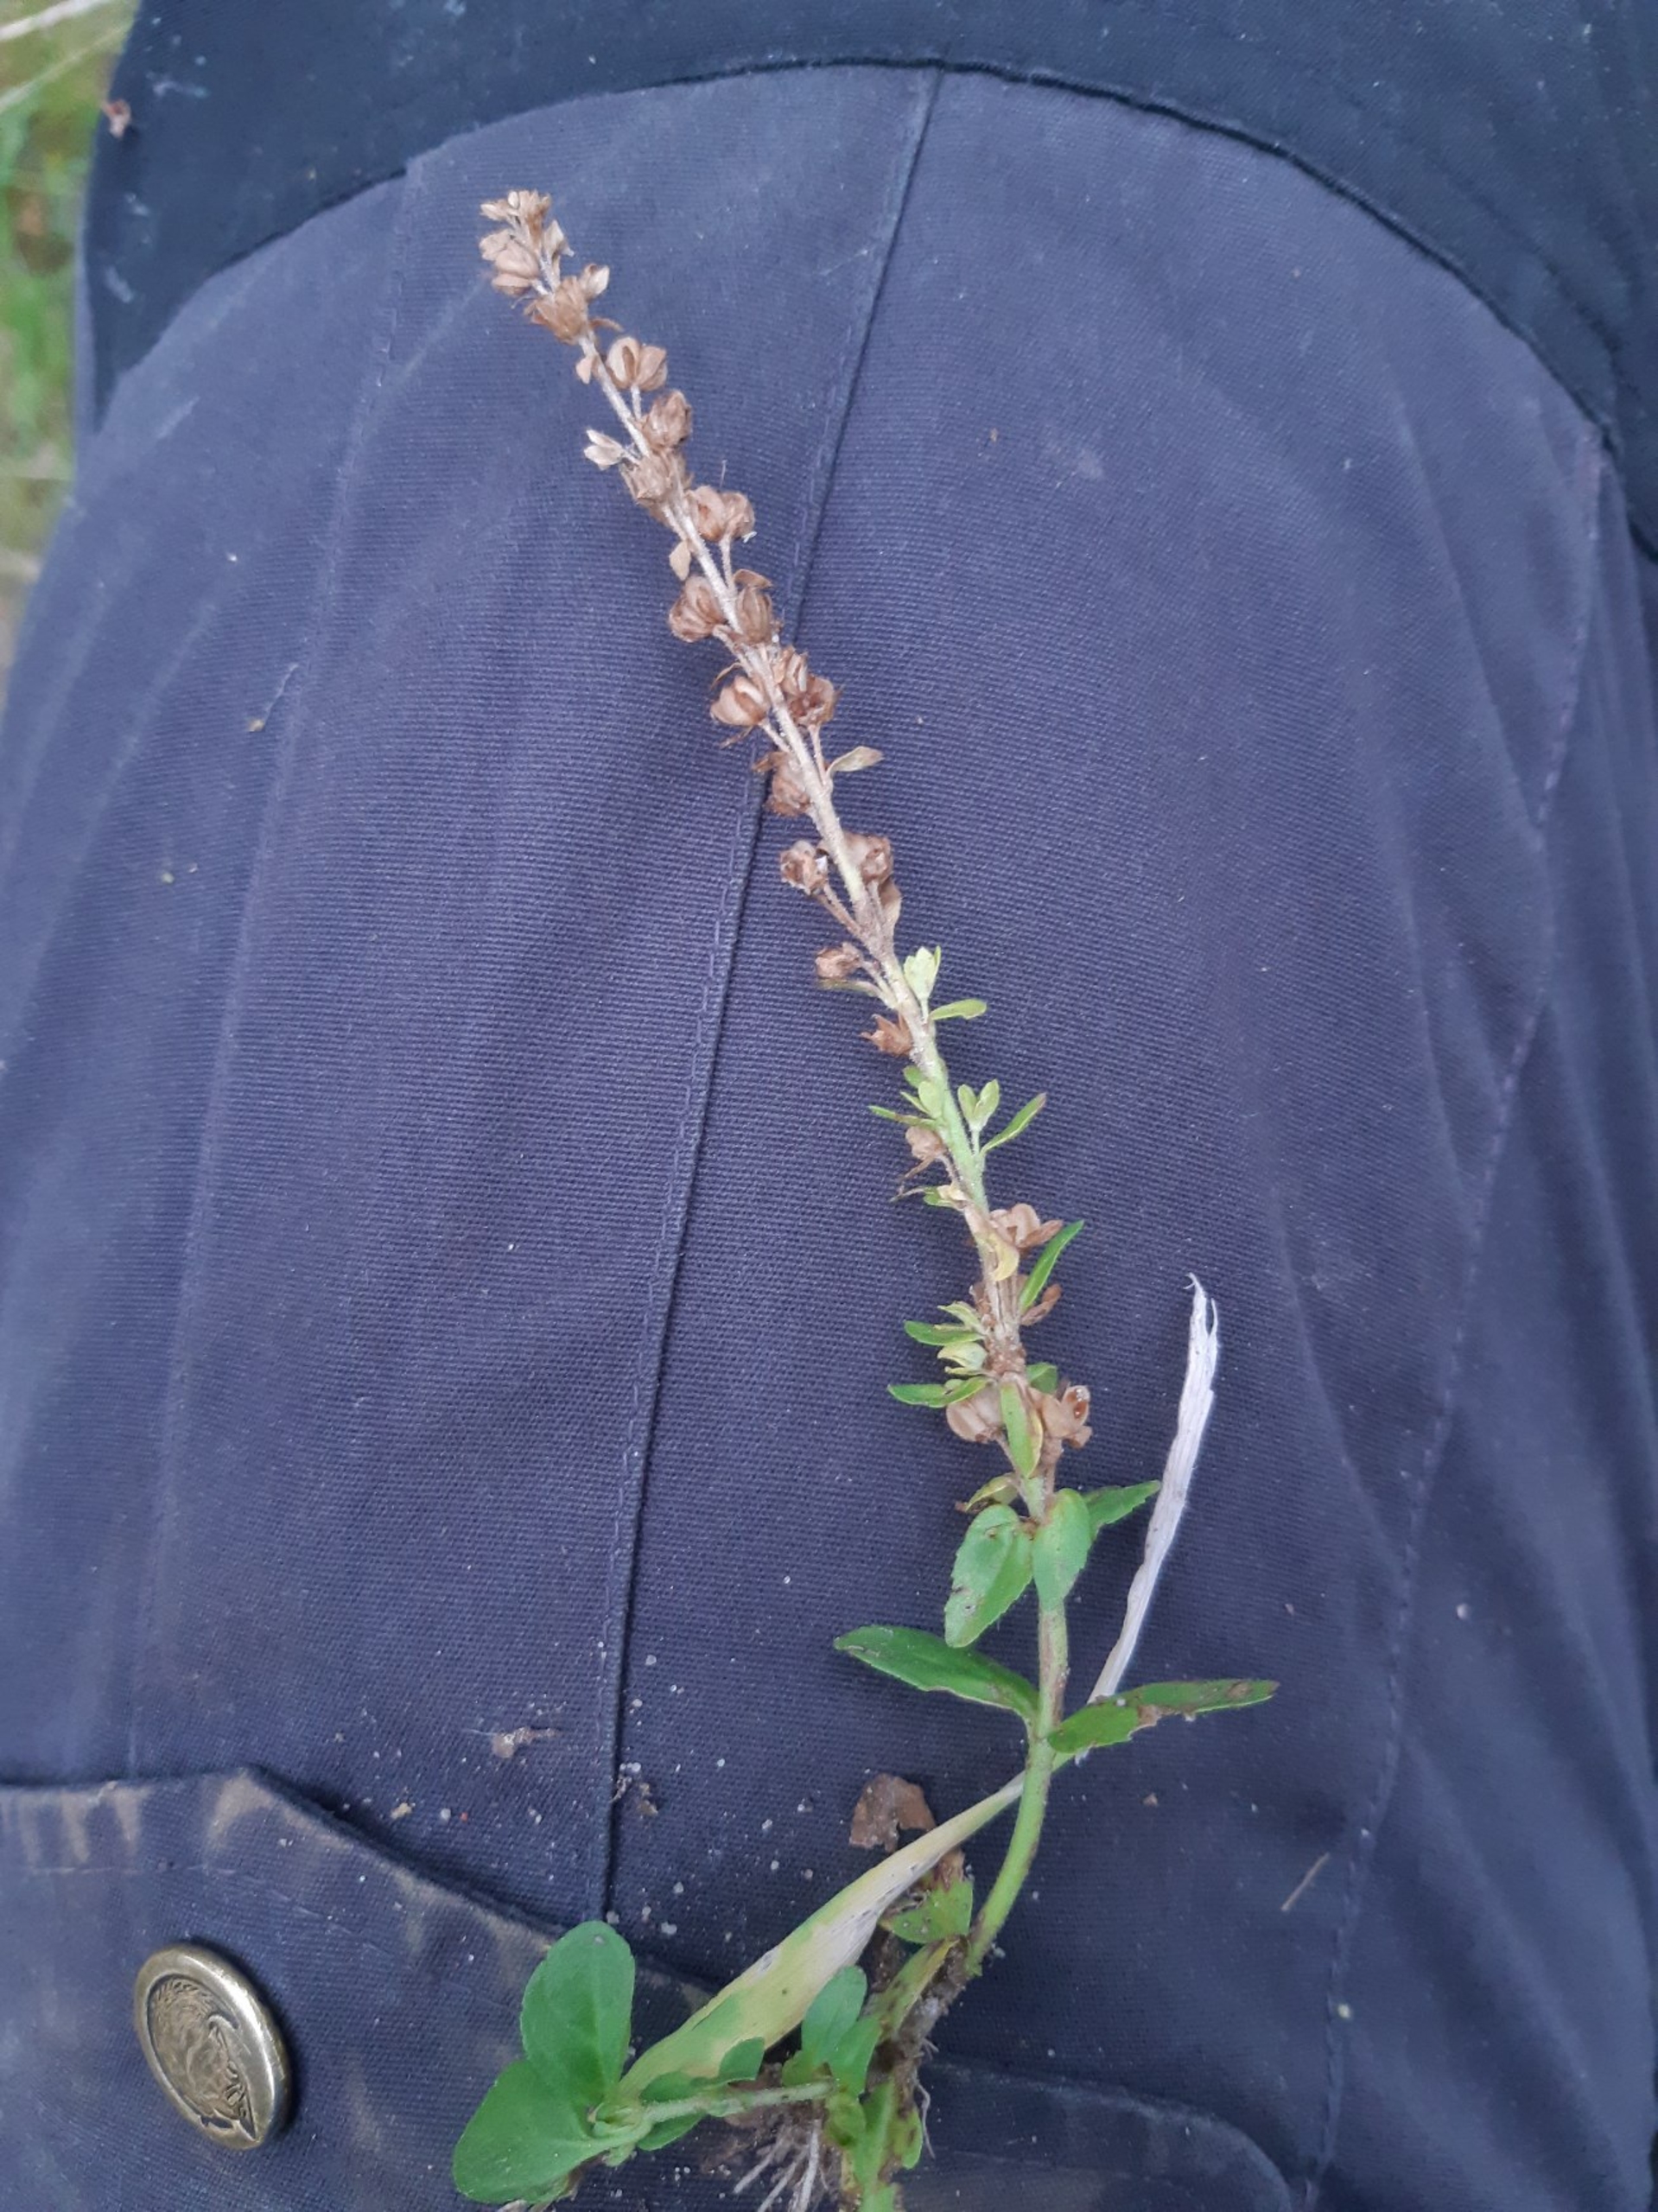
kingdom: Plantae
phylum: Tracheophyta
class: Magnoliopsida
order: Lamiales
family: Plantaginaceae
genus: Veronica
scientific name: Veronica serpyllifolia
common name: Glat ærenpris
